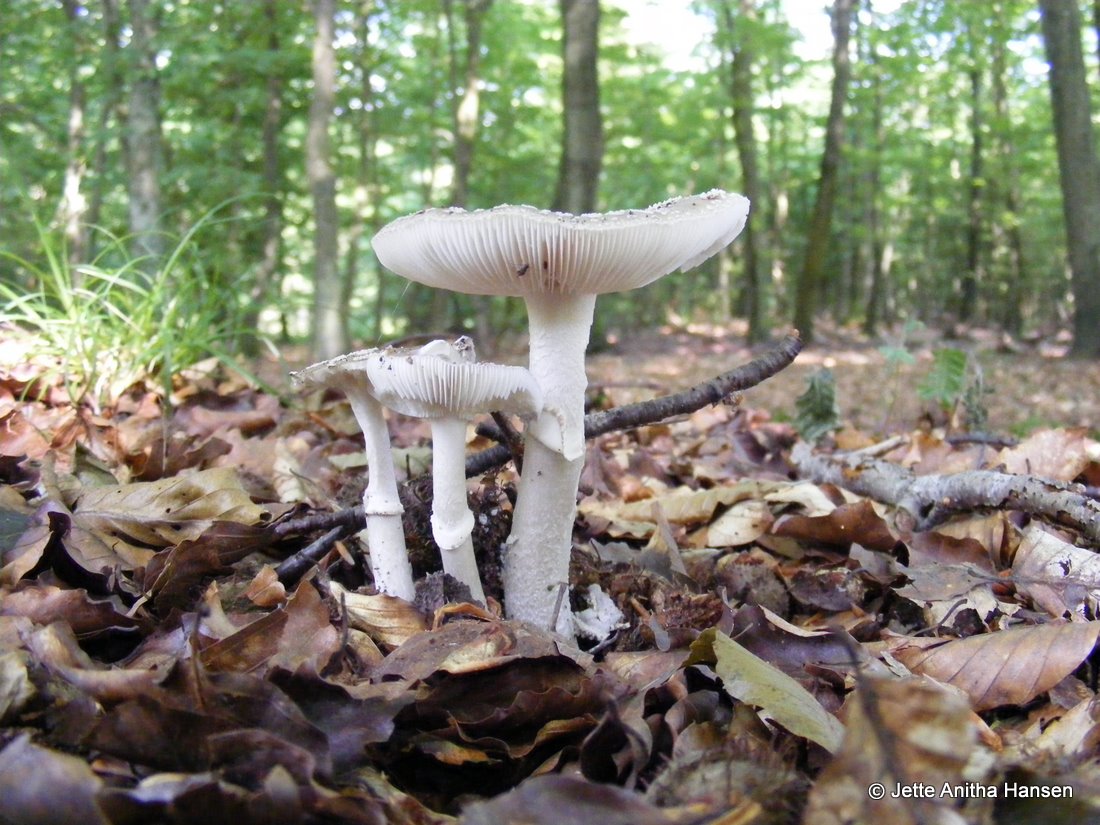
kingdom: Fungi
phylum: Basidiomycota
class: Agaricomycetes
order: Agaricales
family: Amanitaceae
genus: Amanita
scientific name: Amanita
